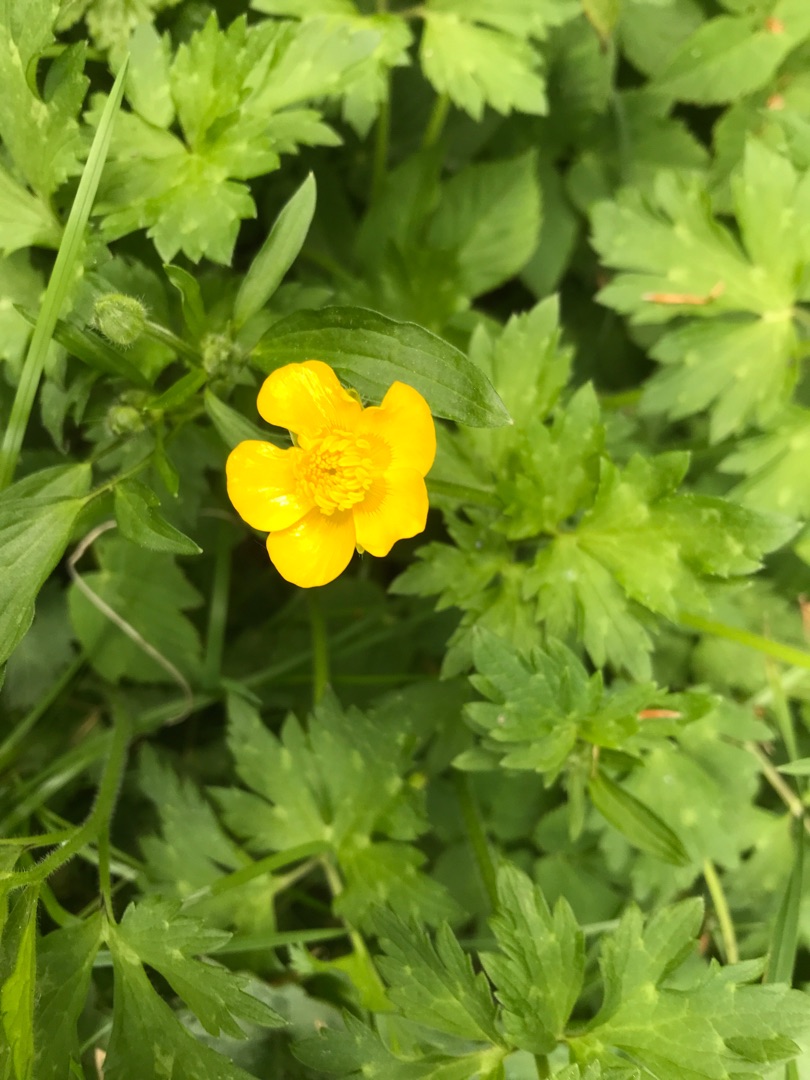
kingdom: Plantae
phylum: Tracheophyta
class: Magnoliopsida
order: Ranunculales
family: Ranunculaceae
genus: Ranunculus
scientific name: Ranunculus repens
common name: Lav ranunkel
